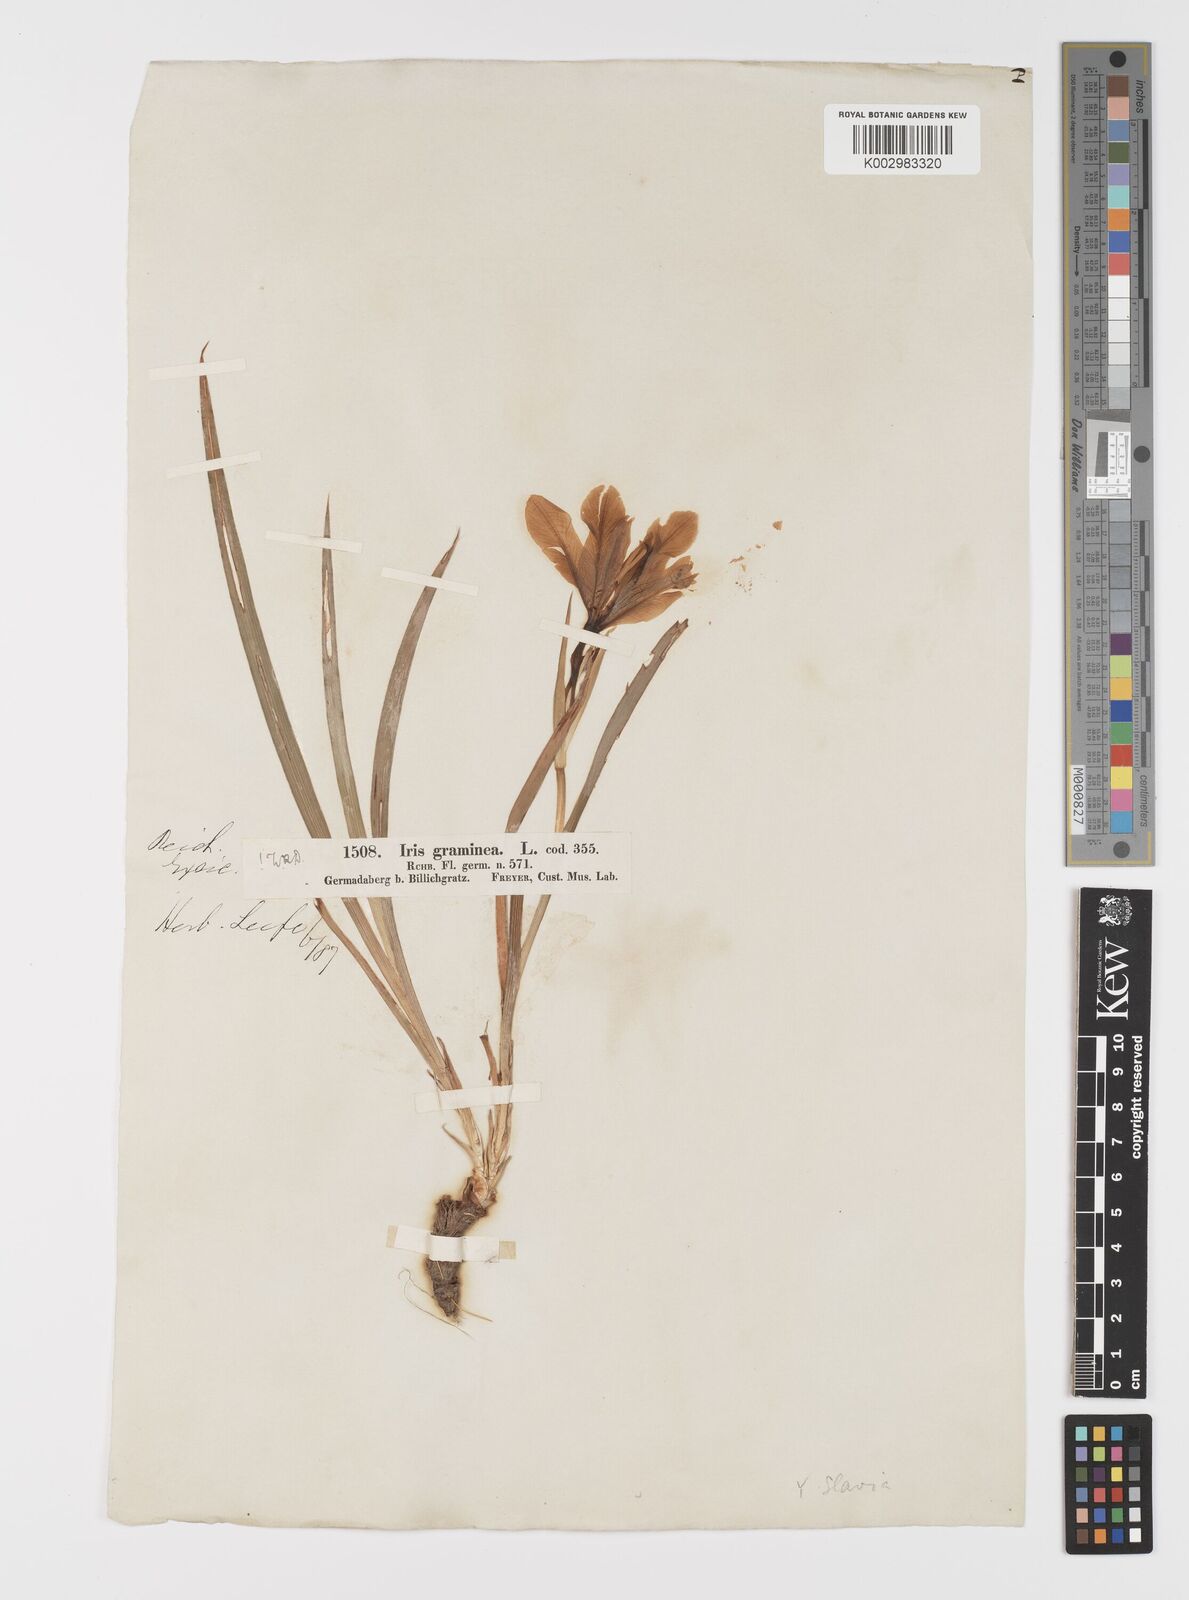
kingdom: Plantae
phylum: Tracheophyta
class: Liliopsida
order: Asparagales
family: Iridaceae
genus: Iris
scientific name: Iris graminea
